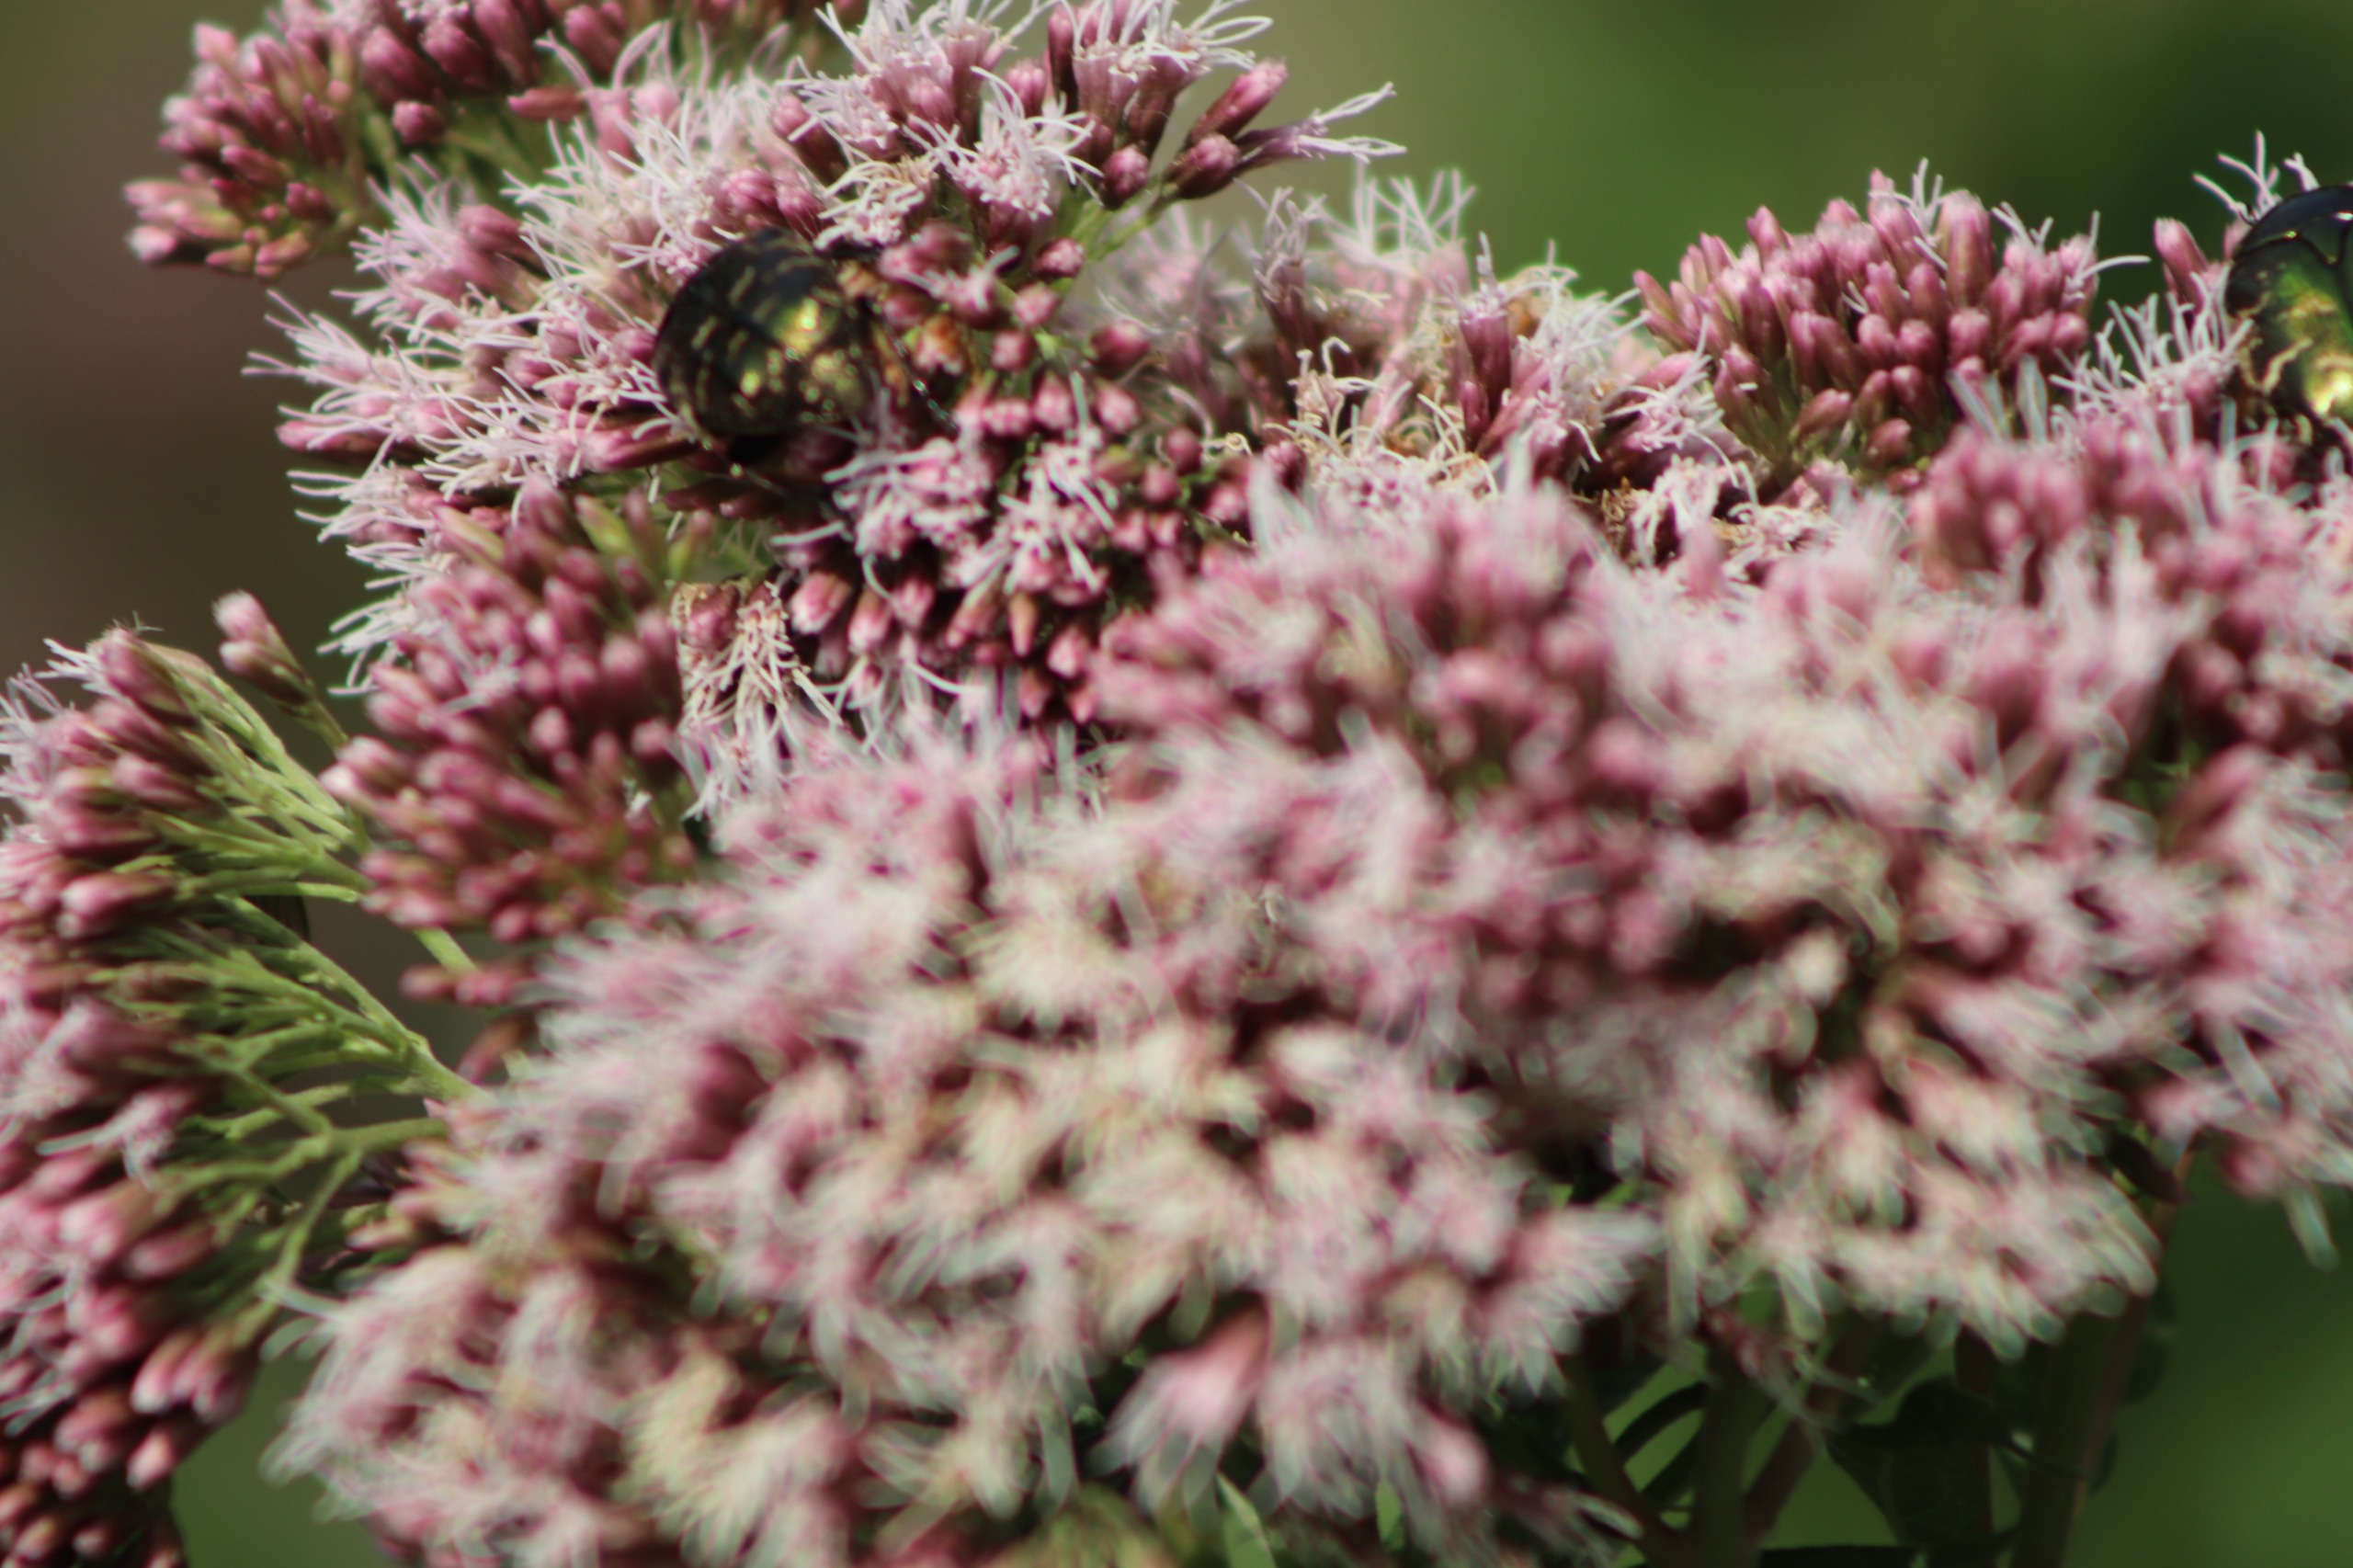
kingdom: Plantae
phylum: Tracheophyta
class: Magnoliopsida
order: Asterales
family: Asteraceae
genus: Eupatorium
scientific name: Eupatorium cannabinum
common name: Hjortetrøst
